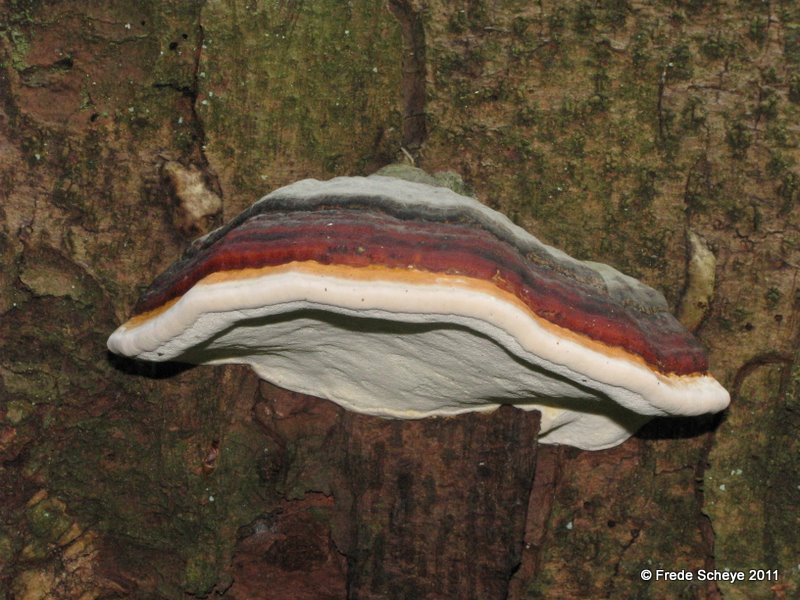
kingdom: Fungi
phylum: Basidiomycota
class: Agaricomycetes
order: Polyporales
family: Fomitopsidaceae
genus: Fomitopsis
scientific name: Fomitopsis pinicola
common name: randbæltet hovporesvamp
